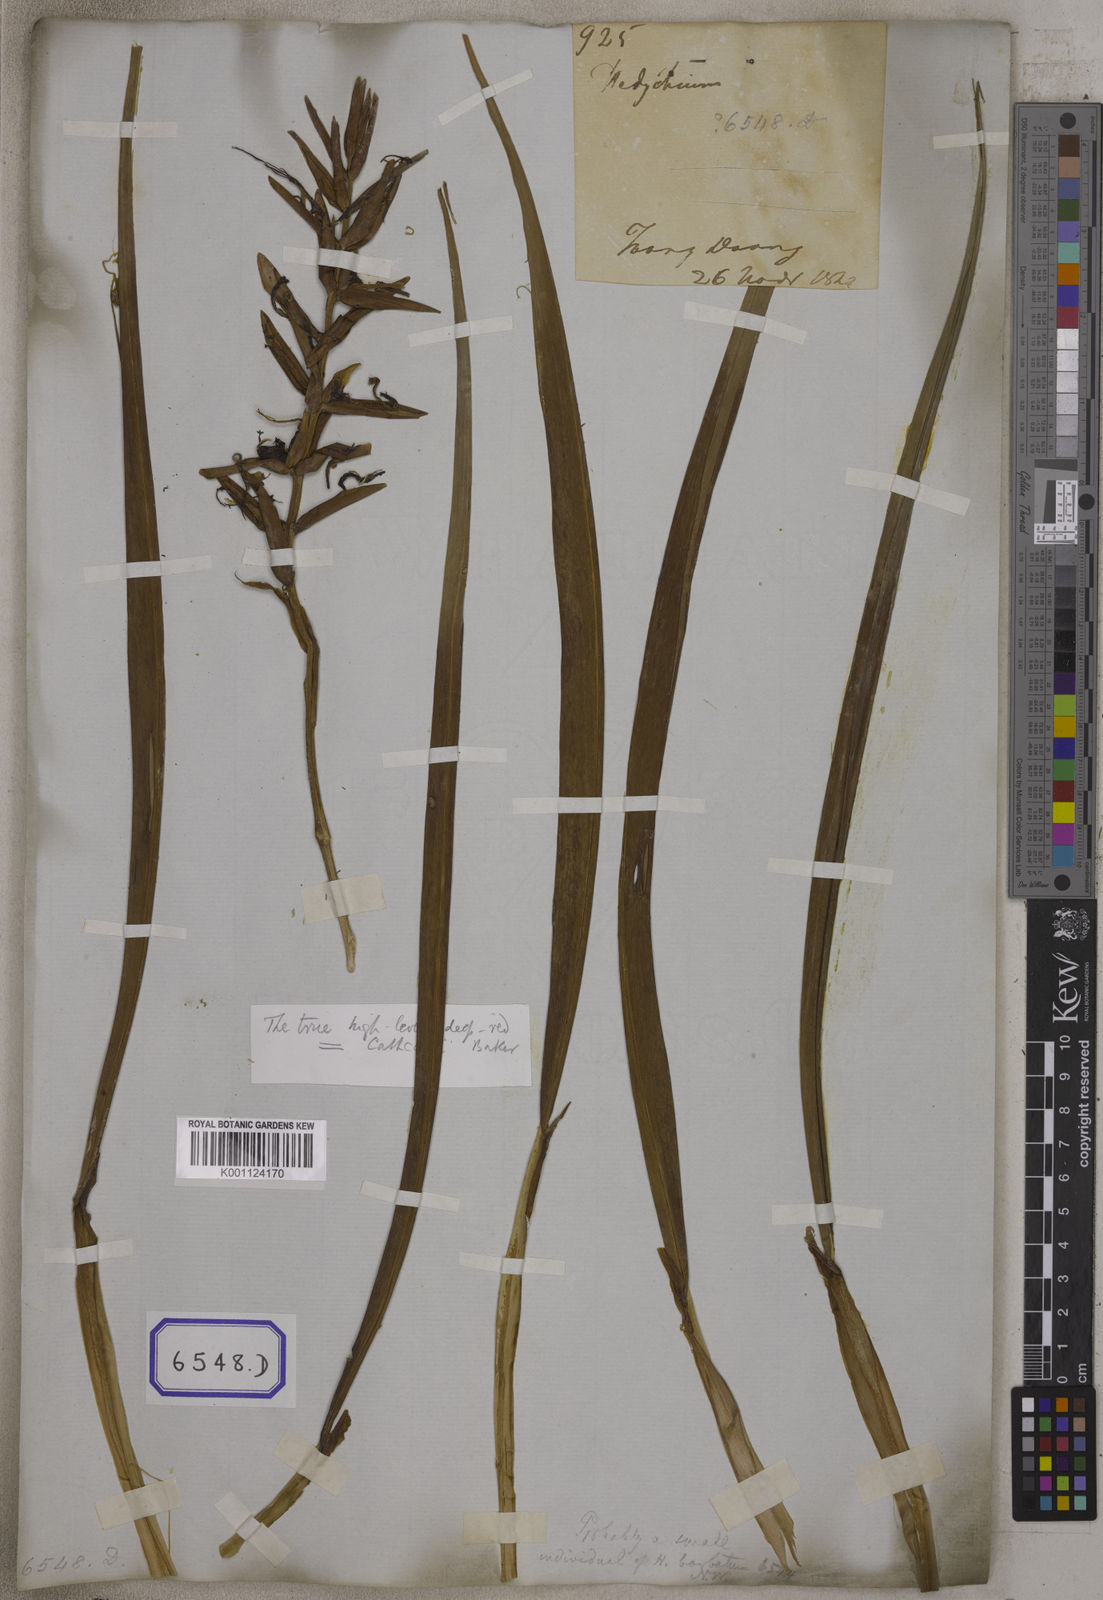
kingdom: Plantae
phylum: Tracheophyta
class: Liliopsida
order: Zingiberales
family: Zingiberaceae
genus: Hedychium
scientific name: Hedychium coccineum
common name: Red ginger-lily
